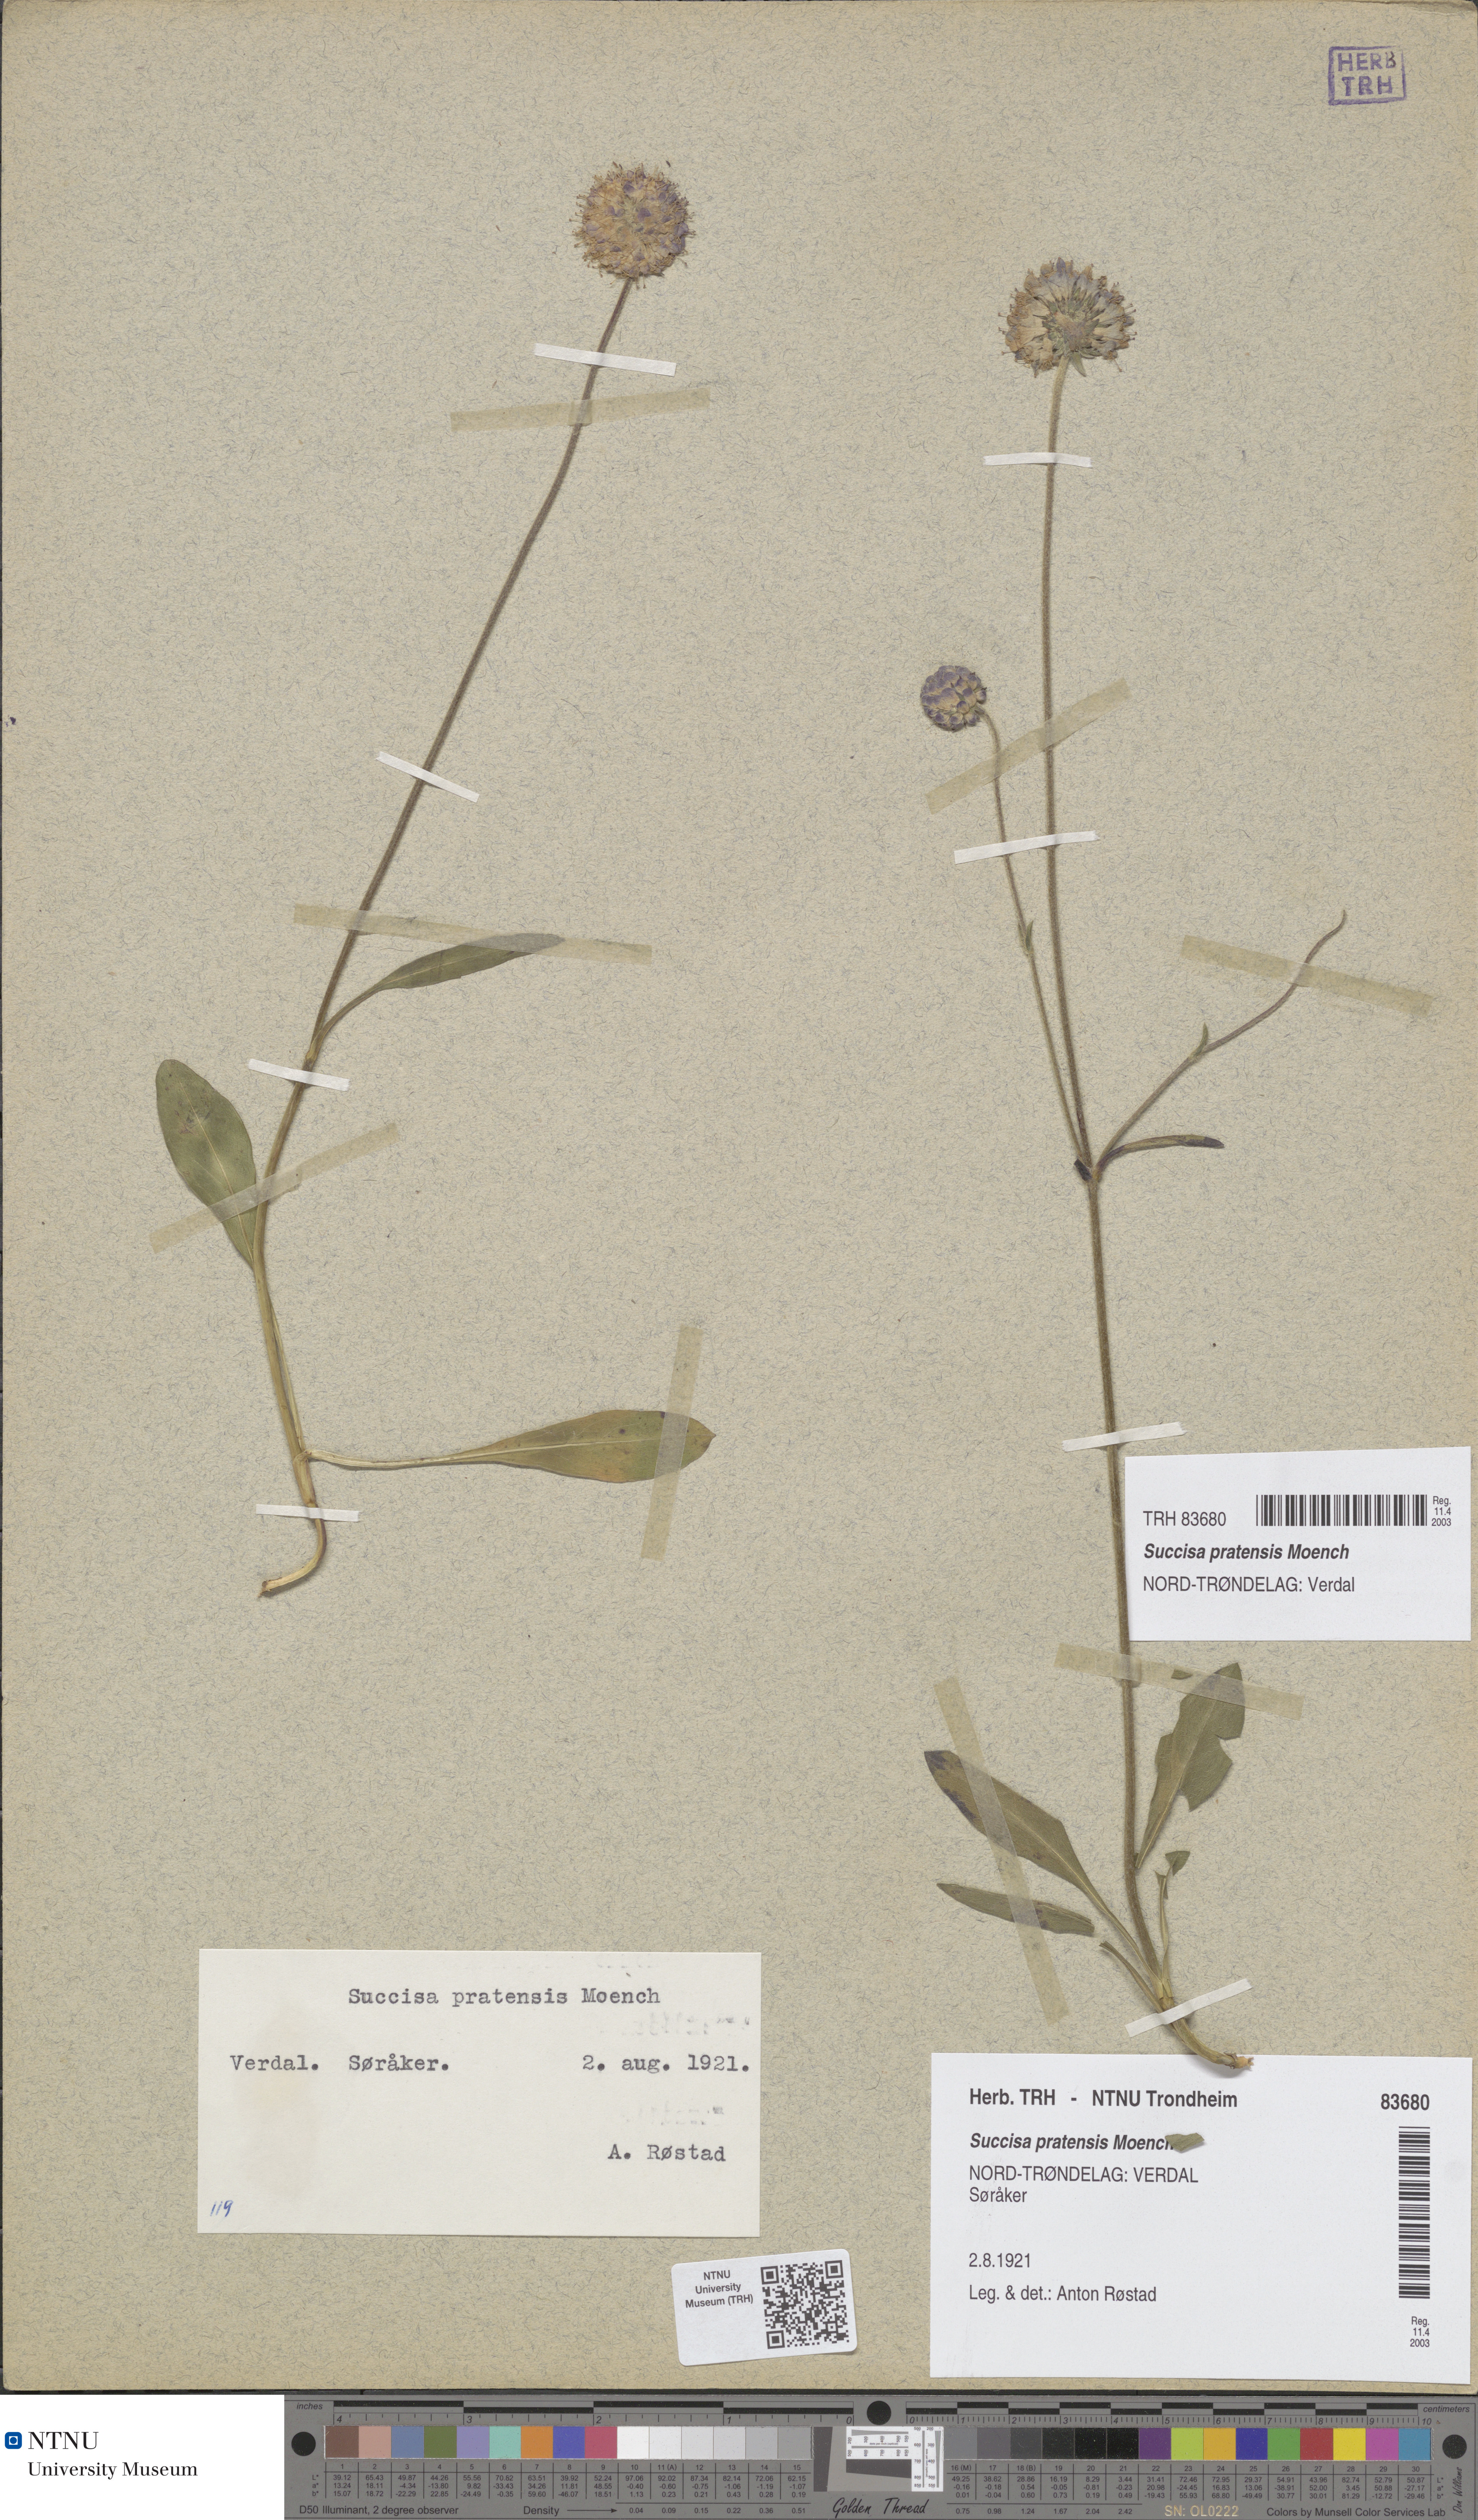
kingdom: Plantae
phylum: Tracheophyta
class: Magnoliopsida
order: Dipsacales
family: Caprifoliaceae
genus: Succisa
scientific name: Succisa pratensis
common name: Devil's-bit
